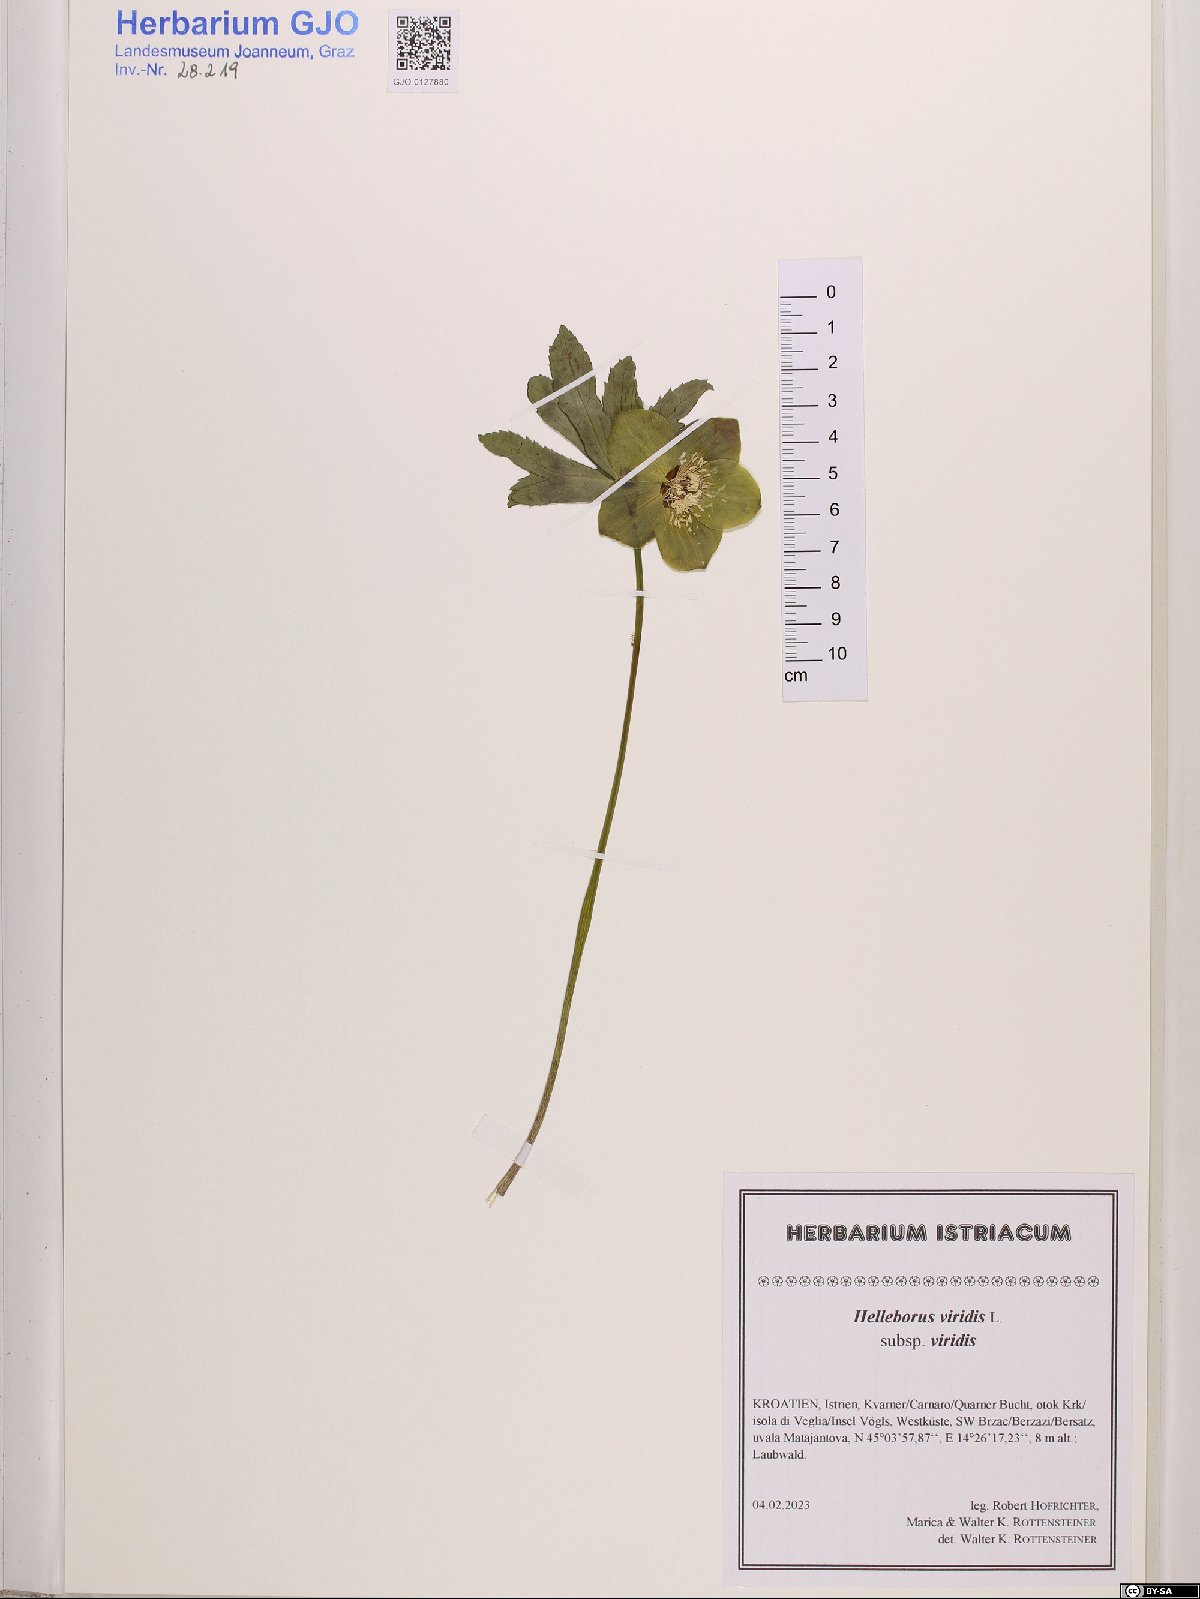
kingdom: Plantae
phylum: Tracheophyta
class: Magnoliopsida
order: Ranunculales
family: Ranunculaceae
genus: Helleborus
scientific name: Helleborus viridis
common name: Green hellebore
